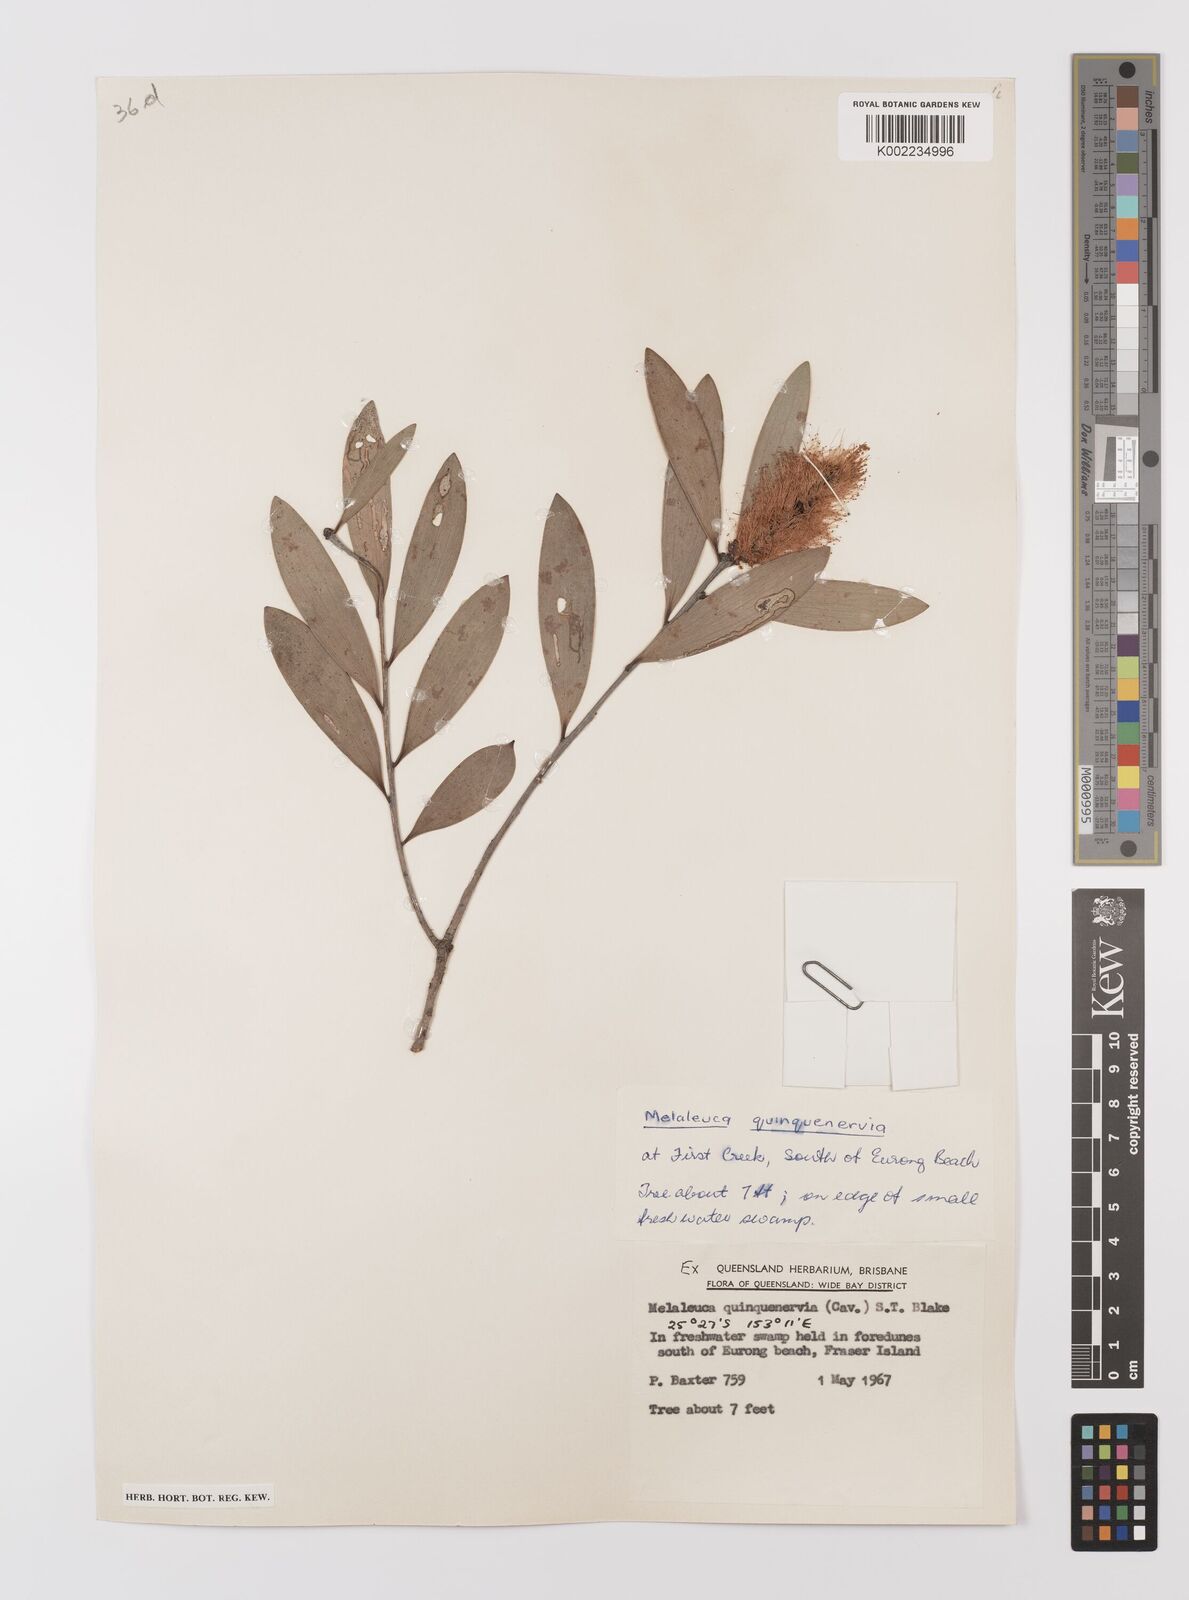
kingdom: Plantae
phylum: Tracheophyta
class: Magnoliopsida
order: Myrtales
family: Myrtaceae
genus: Melaleuca
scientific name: Melaleuca quinquenervia
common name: Punktree
